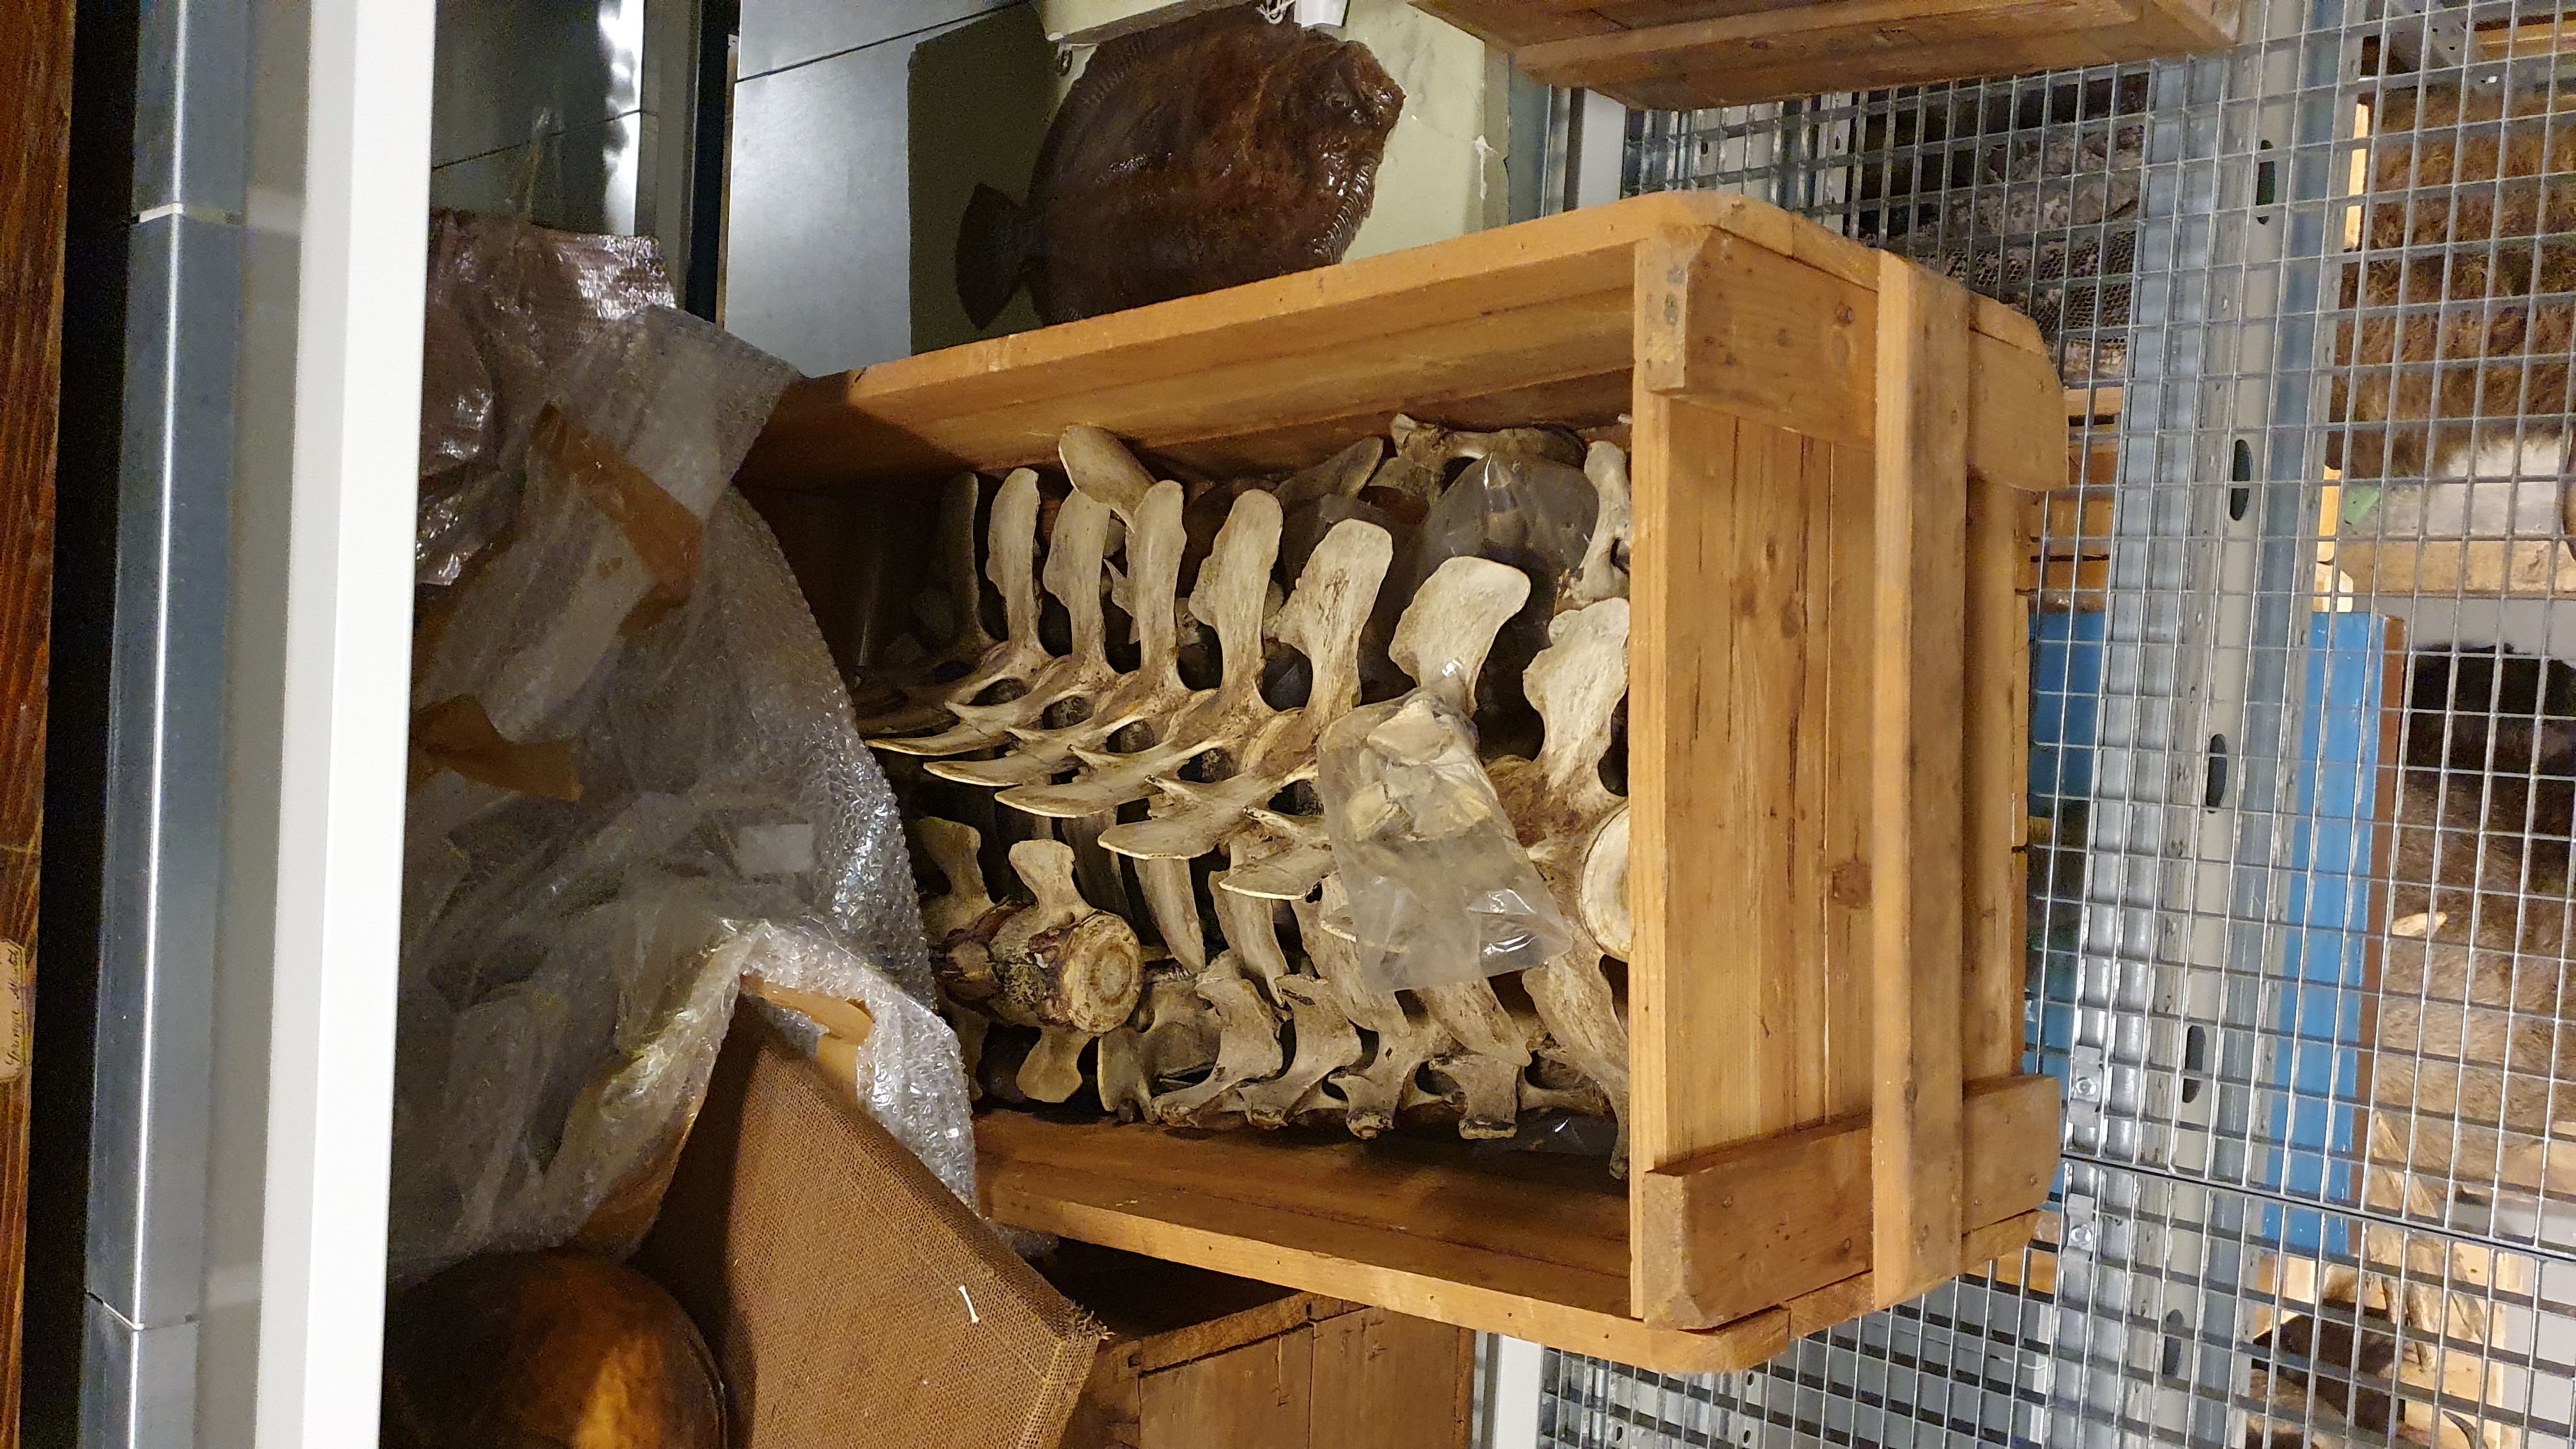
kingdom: Animalia
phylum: Chordata
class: Mammalia
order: Cetacea
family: Monodontidae
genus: Delphinapterus
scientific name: Delphinapterus leucas
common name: Beluga
